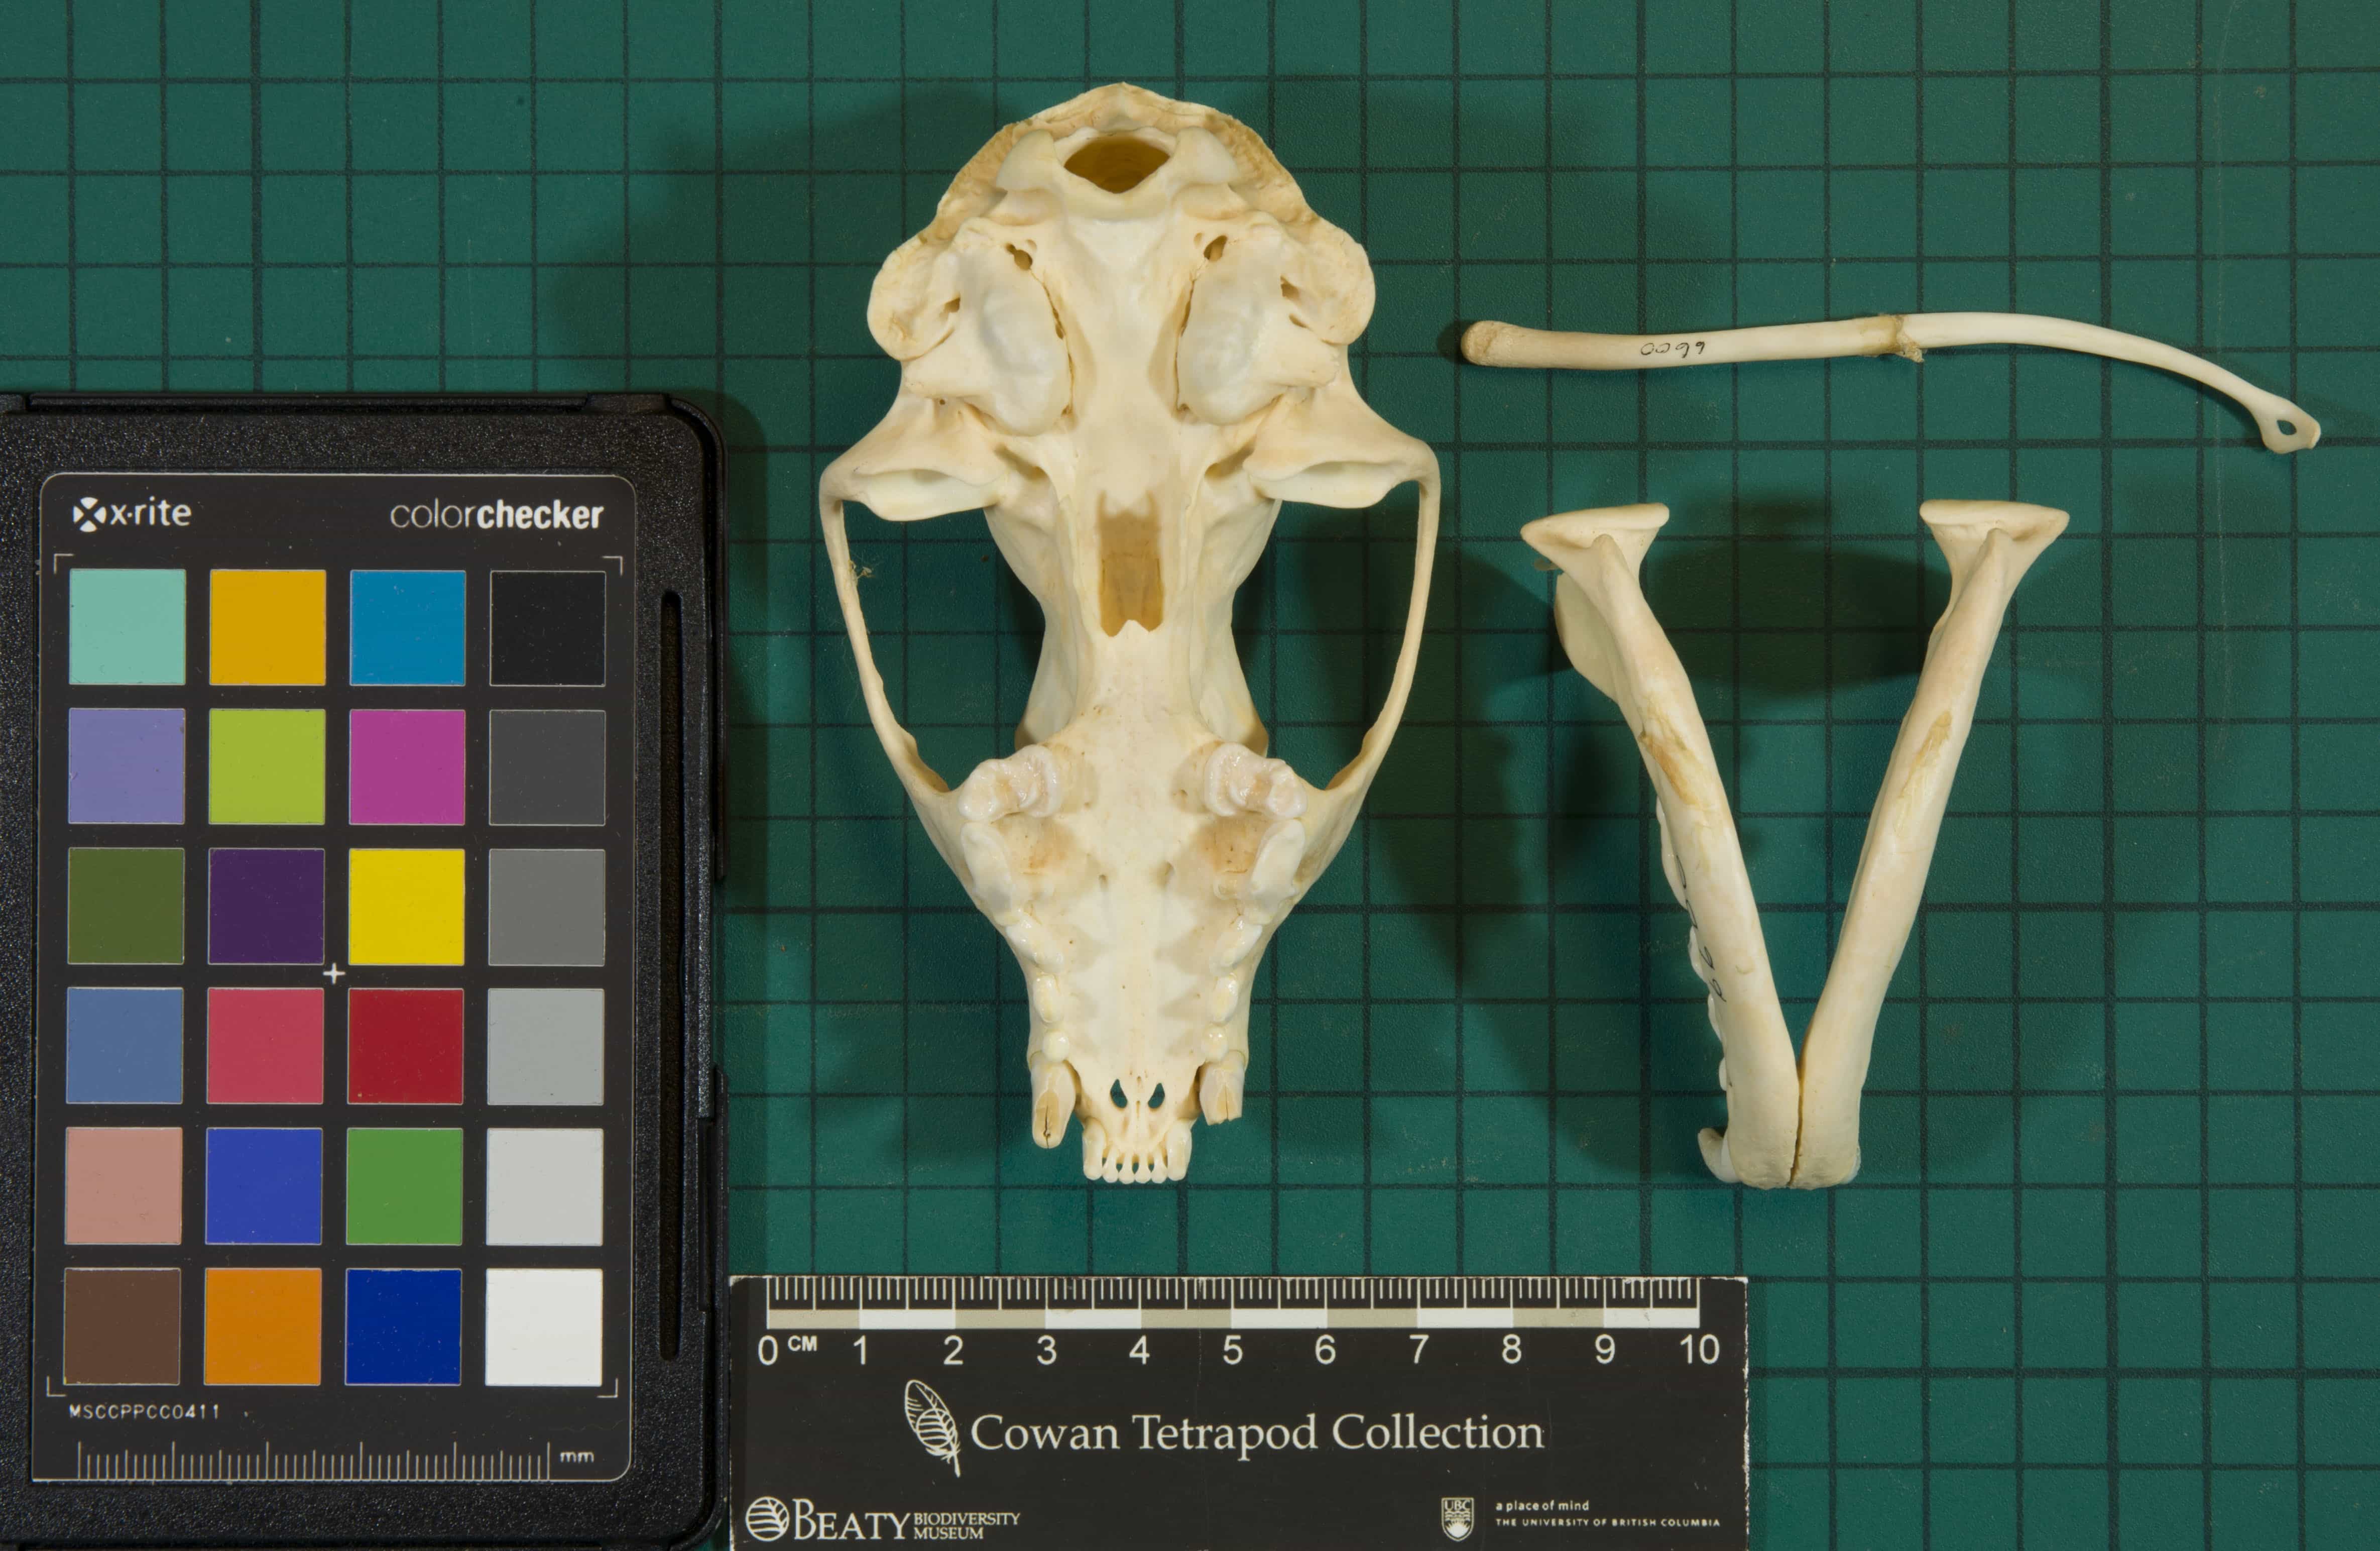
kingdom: Animalia
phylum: Chordata
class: Mammalia
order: Carnivora
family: Mustelidae
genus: Pekania
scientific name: Pekania pennanti
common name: Fisher
